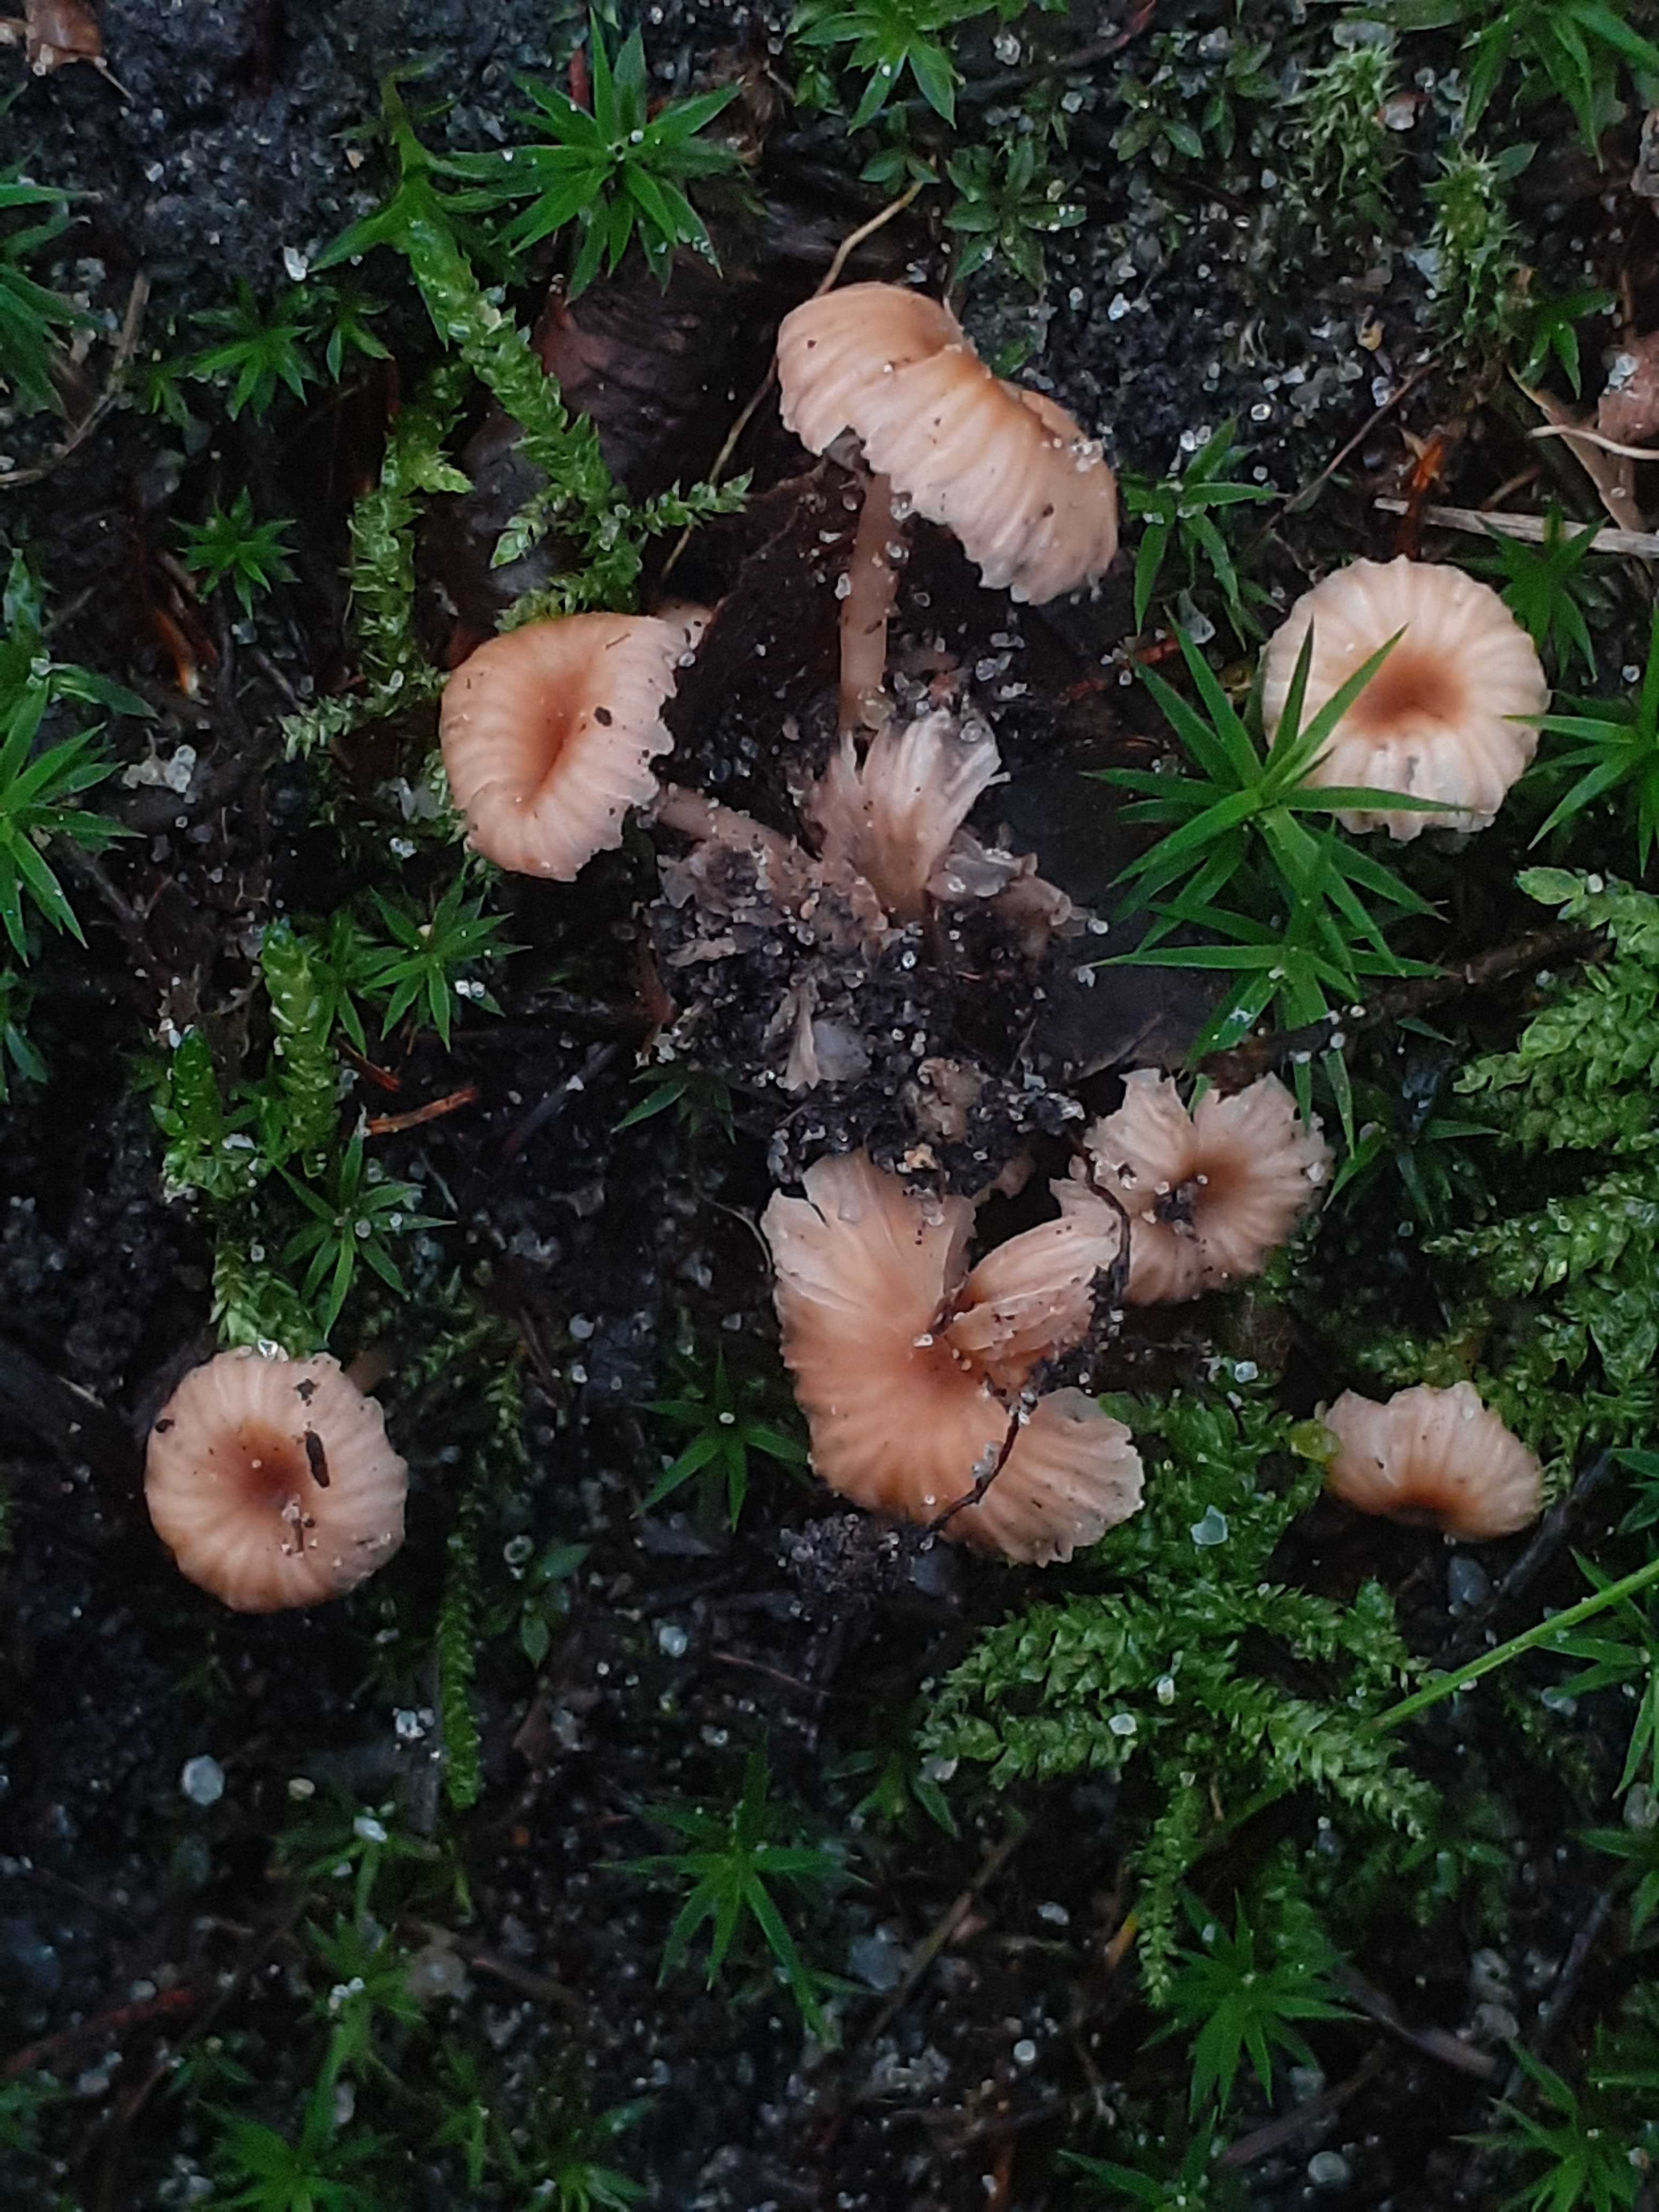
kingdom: Fungi
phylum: Basidiomycota
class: Agaricomycetes
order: Agaricales
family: Hydnangiaceae
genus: Laccaria
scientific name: Laccaria tortilis
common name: krybende ametysthat
